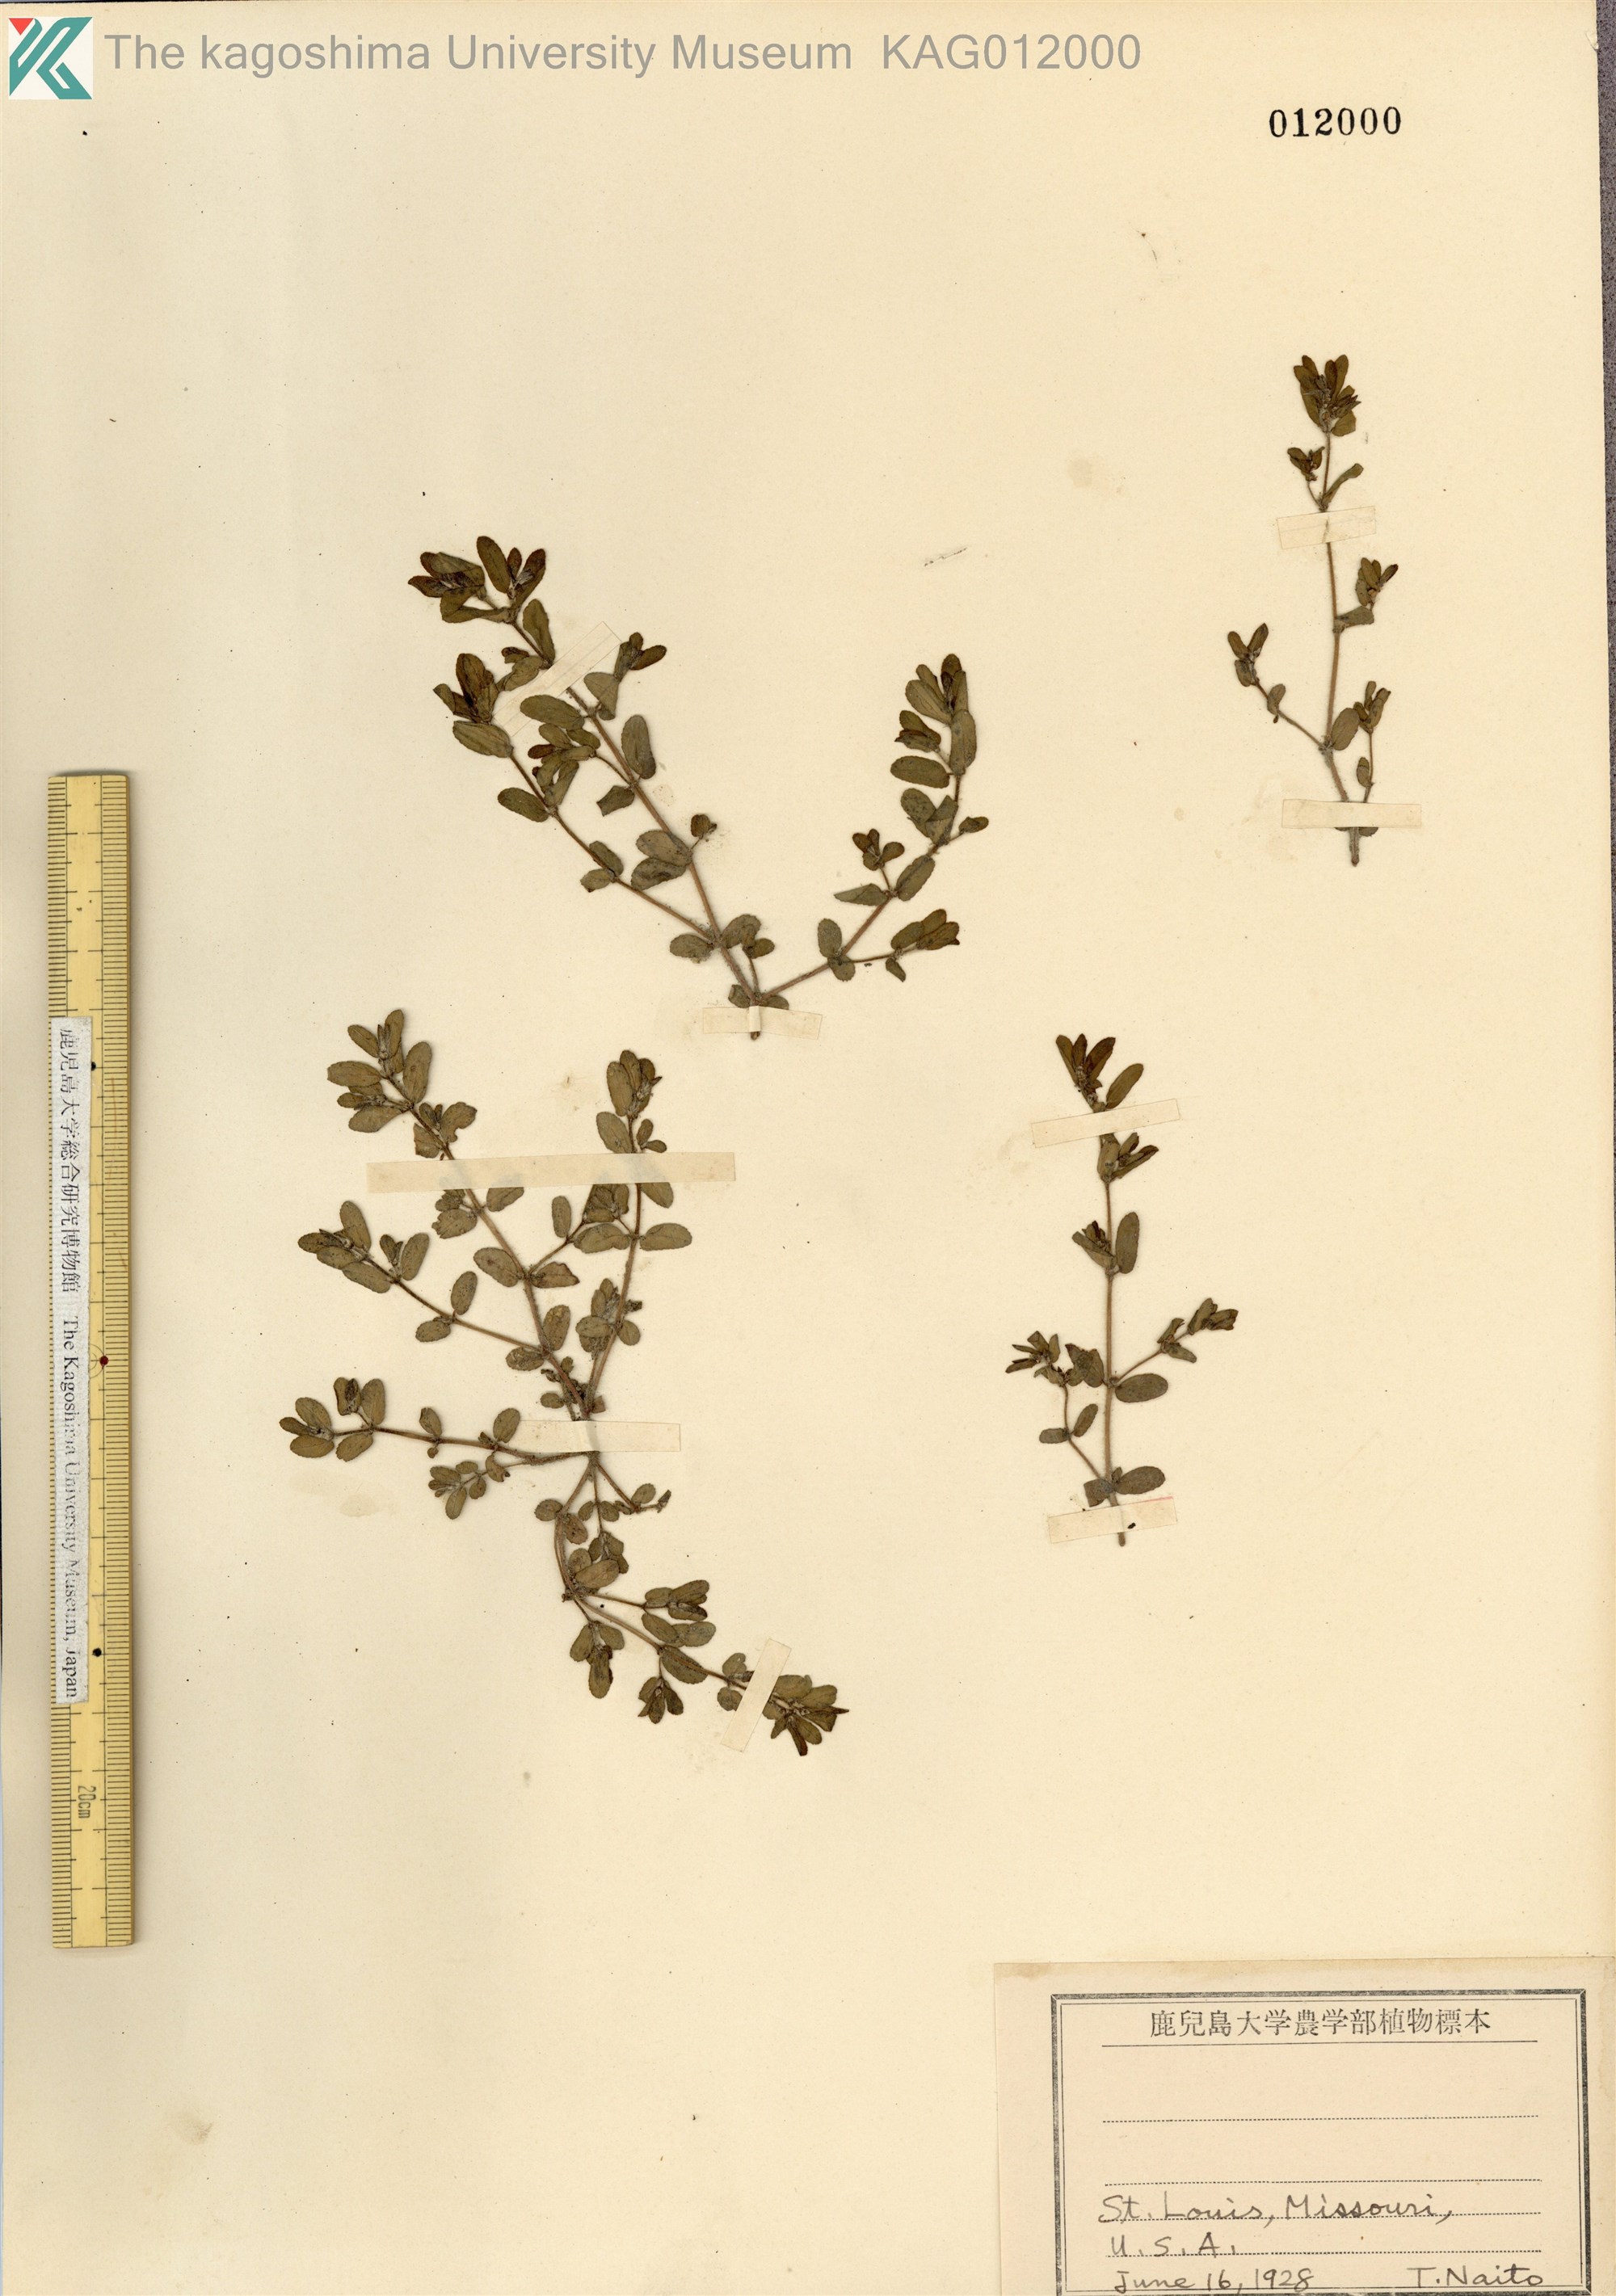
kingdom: Plantae
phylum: Tracheophyta
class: Magnoliopsida
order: Malpighiales
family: Euphorbiaceae
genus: Euphorbia
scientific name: Euphorbia hirsuta
